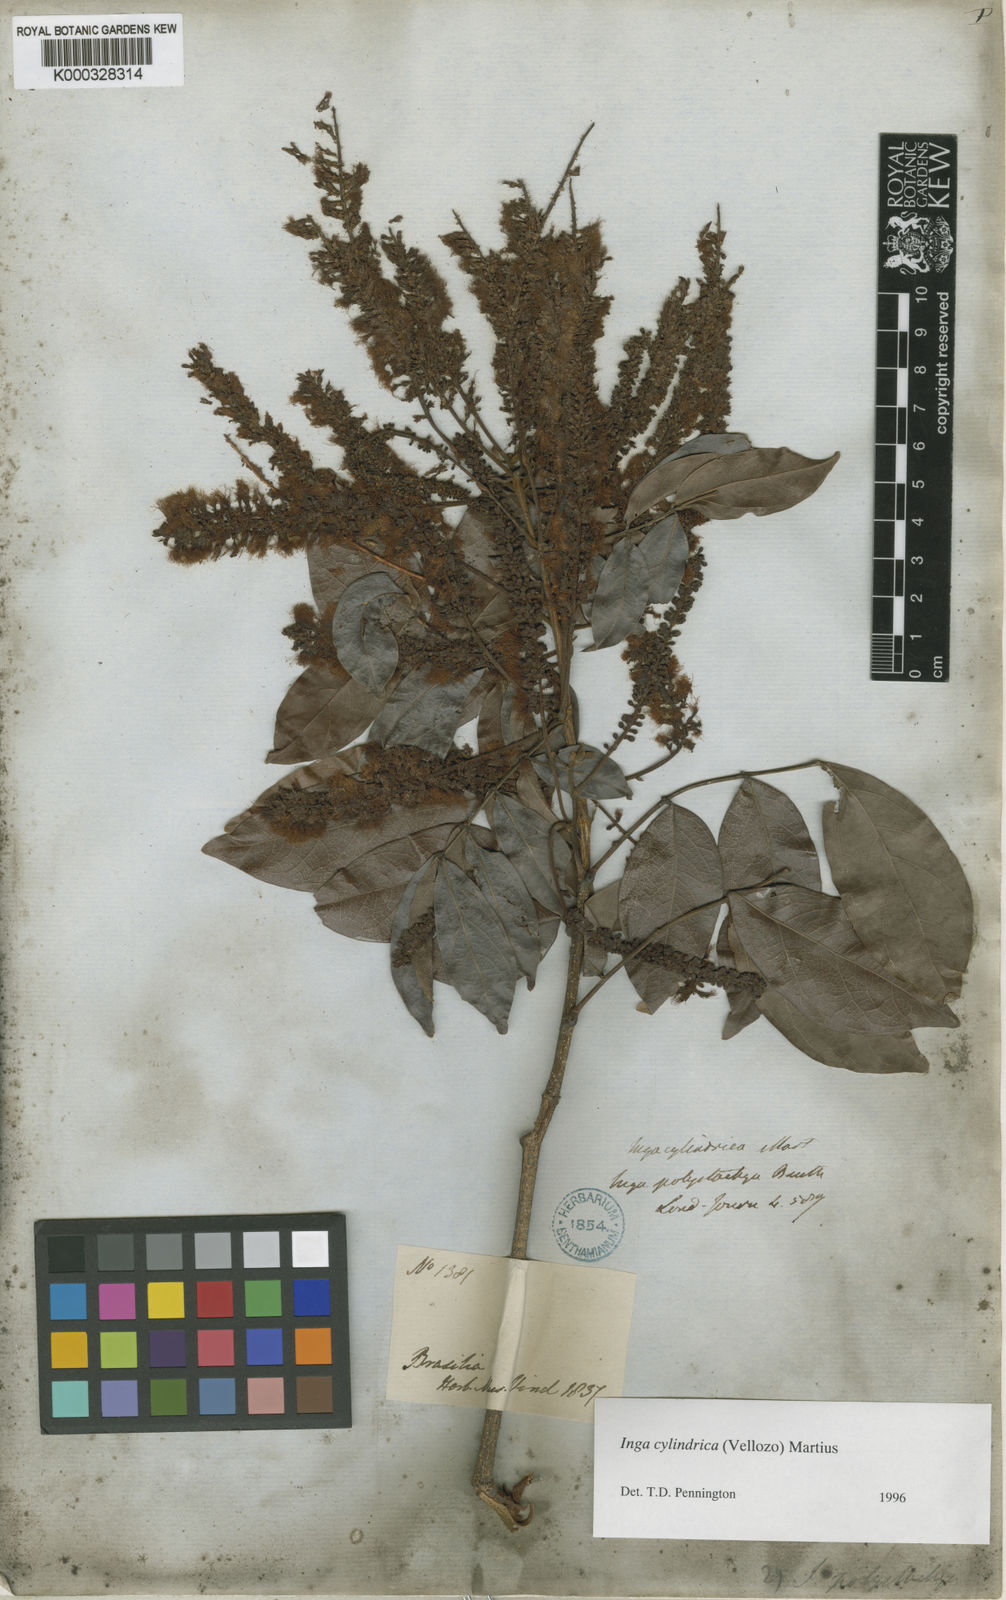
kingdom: Plantae
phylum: Tracheophyta
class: Magnoliopsida
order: Fabales
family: Fabaceae
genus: Inga
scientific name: Inga cylindrica
